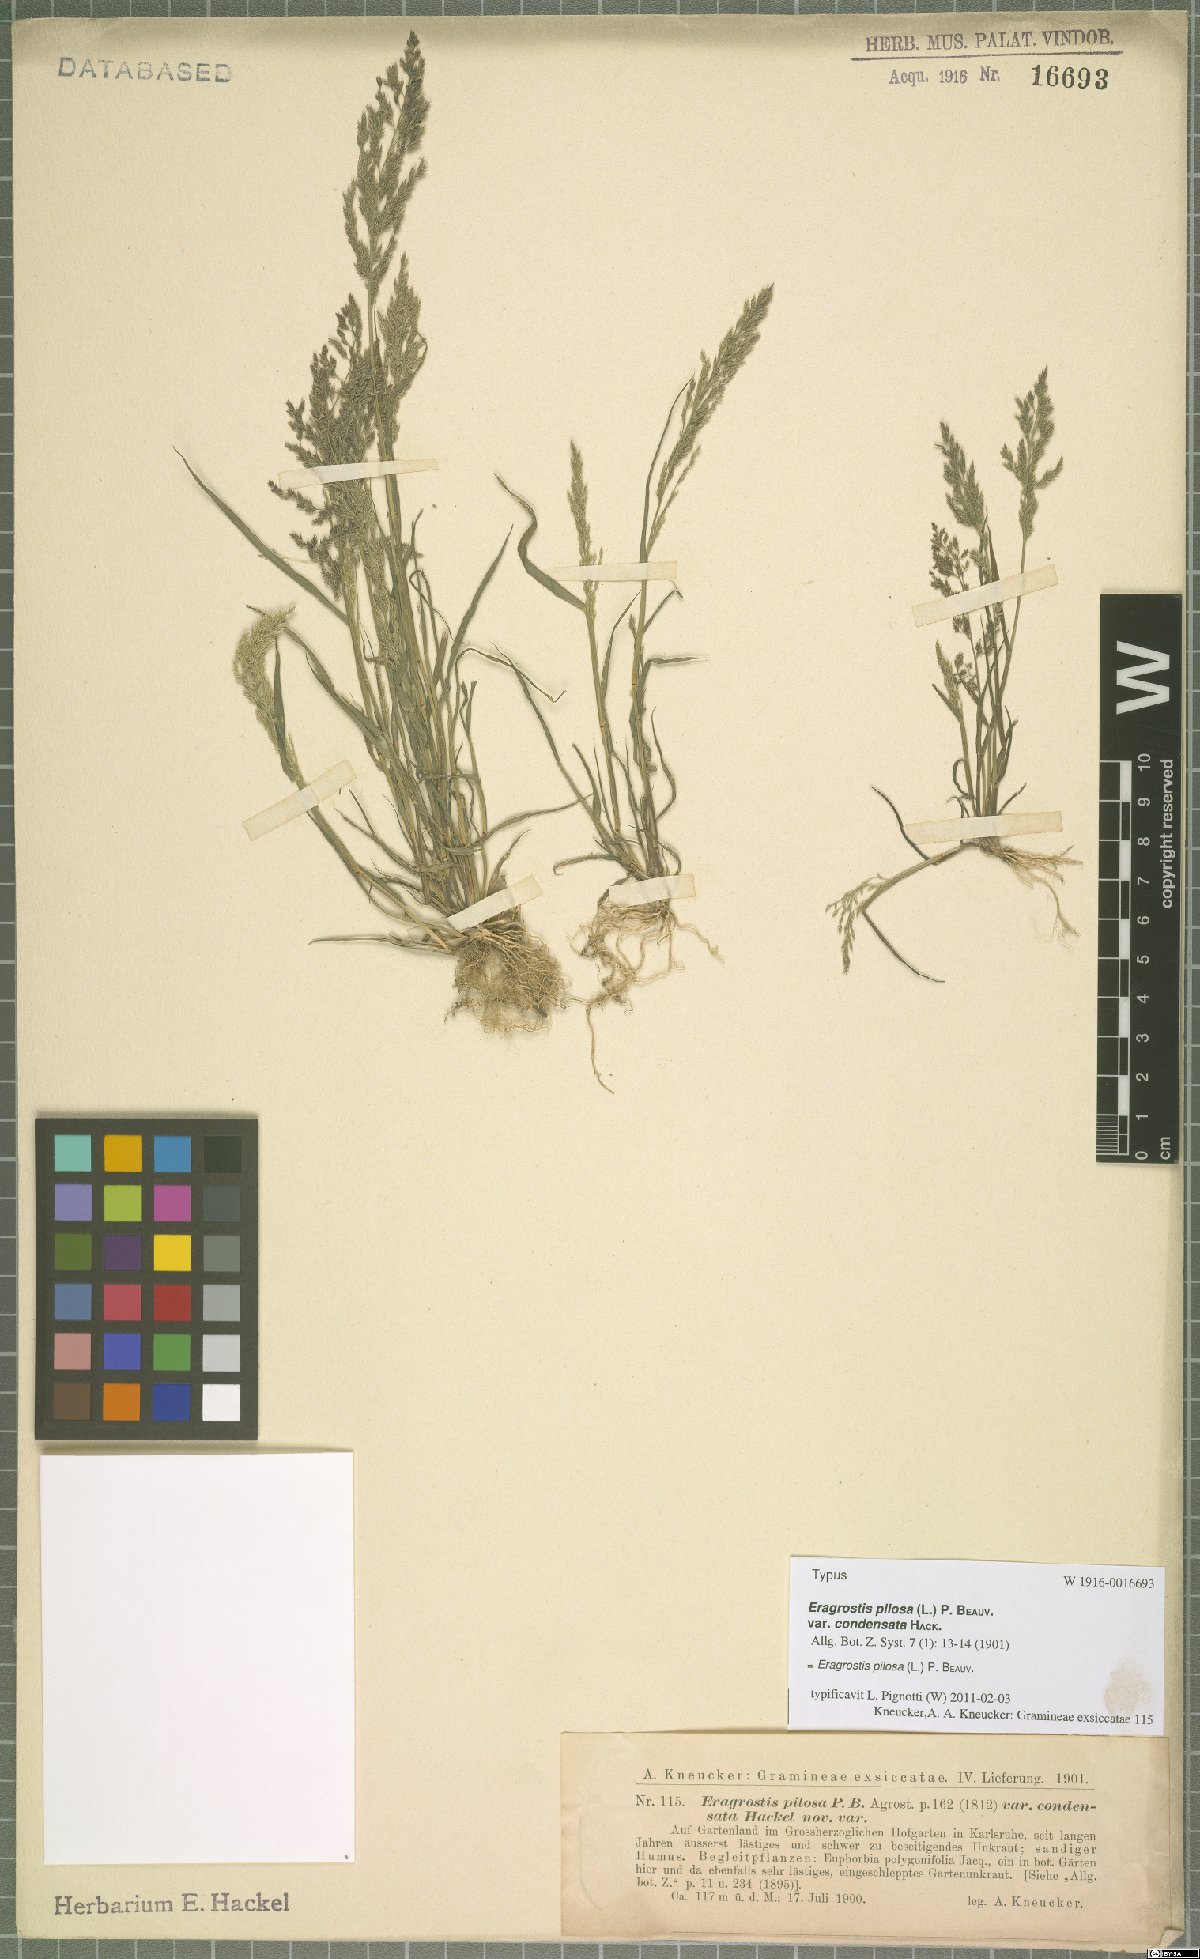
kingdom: Plantae
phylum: Tracheophyta
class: Liliopsida
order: Poales
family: Poaceae
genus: Eragrostis
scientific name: Eragrostis pilosa
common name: Indian lovegrass
